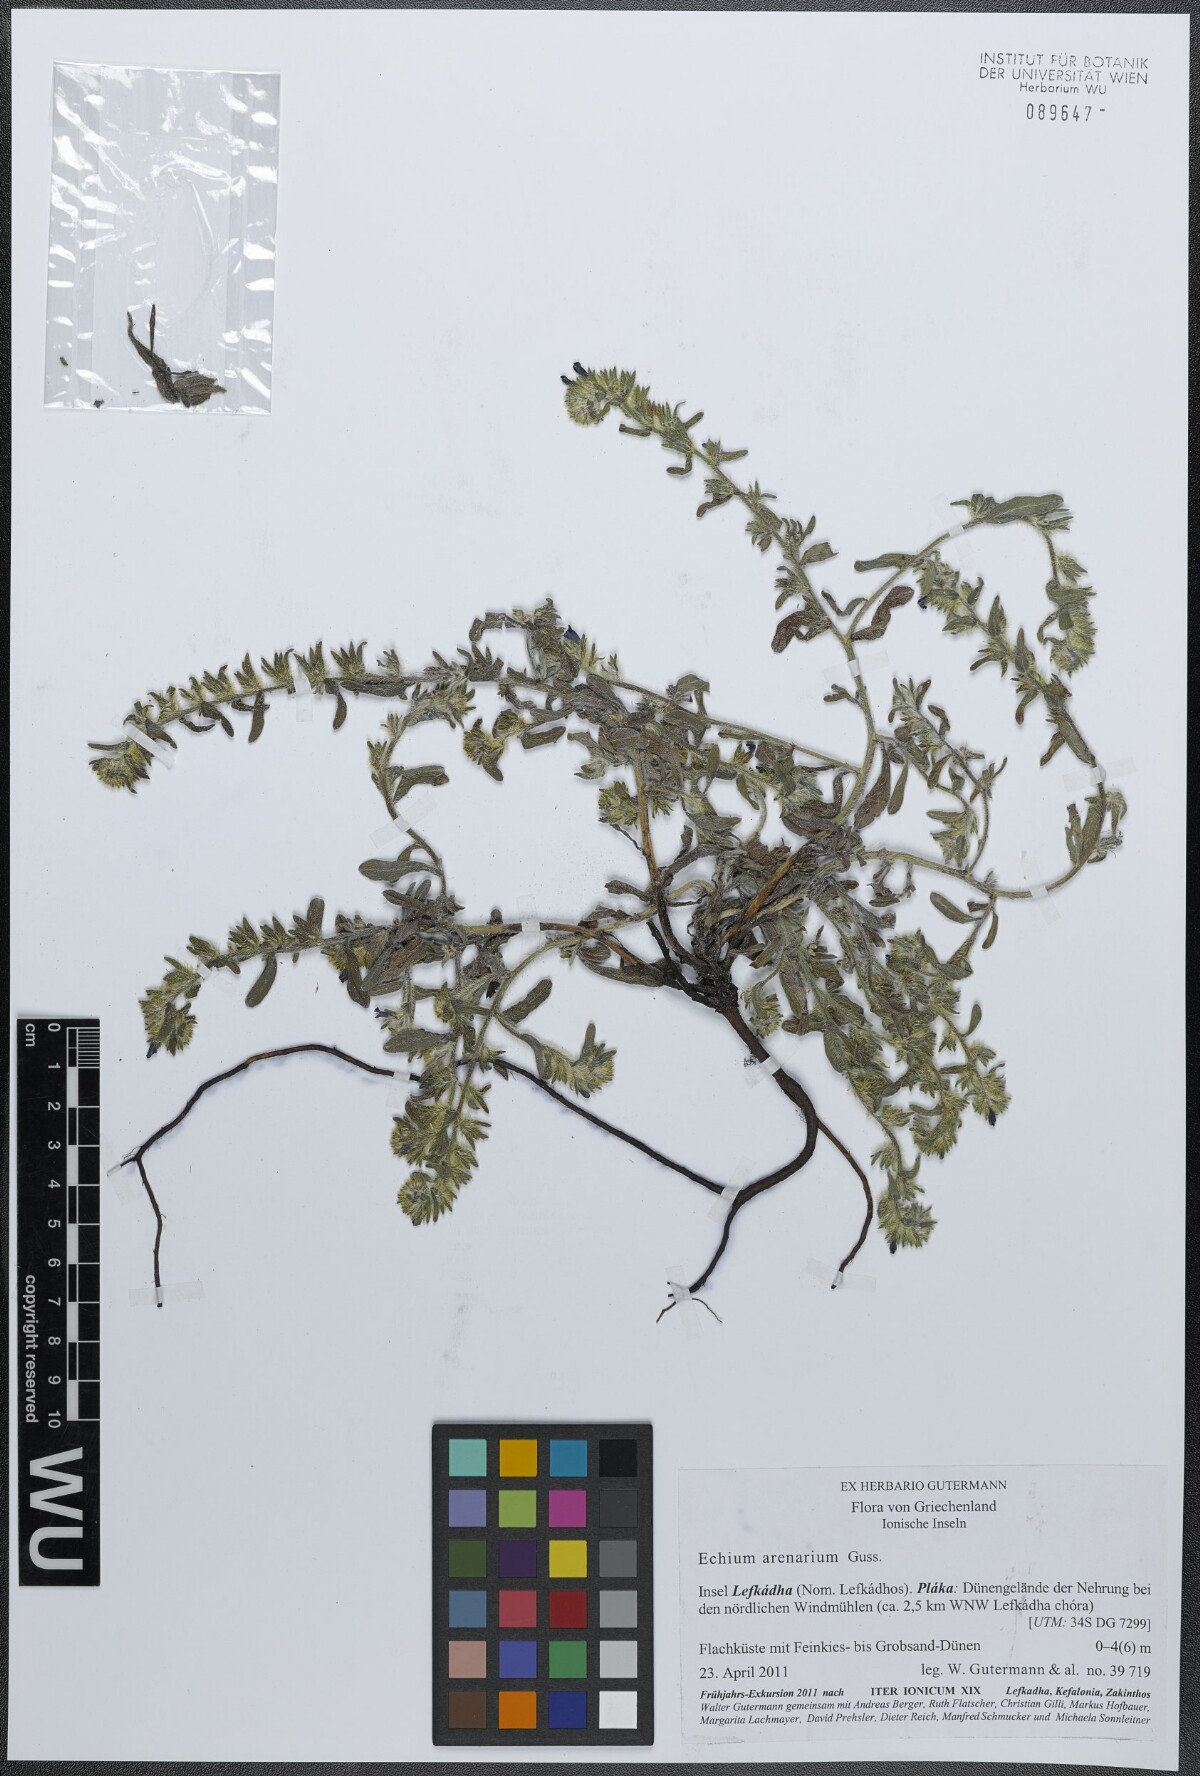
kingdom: Plantae
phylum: Tracheophyta
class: Magnoliopsida
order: Boraginales
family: Boraginaceae
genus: Echium
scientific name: Echium arenarium
